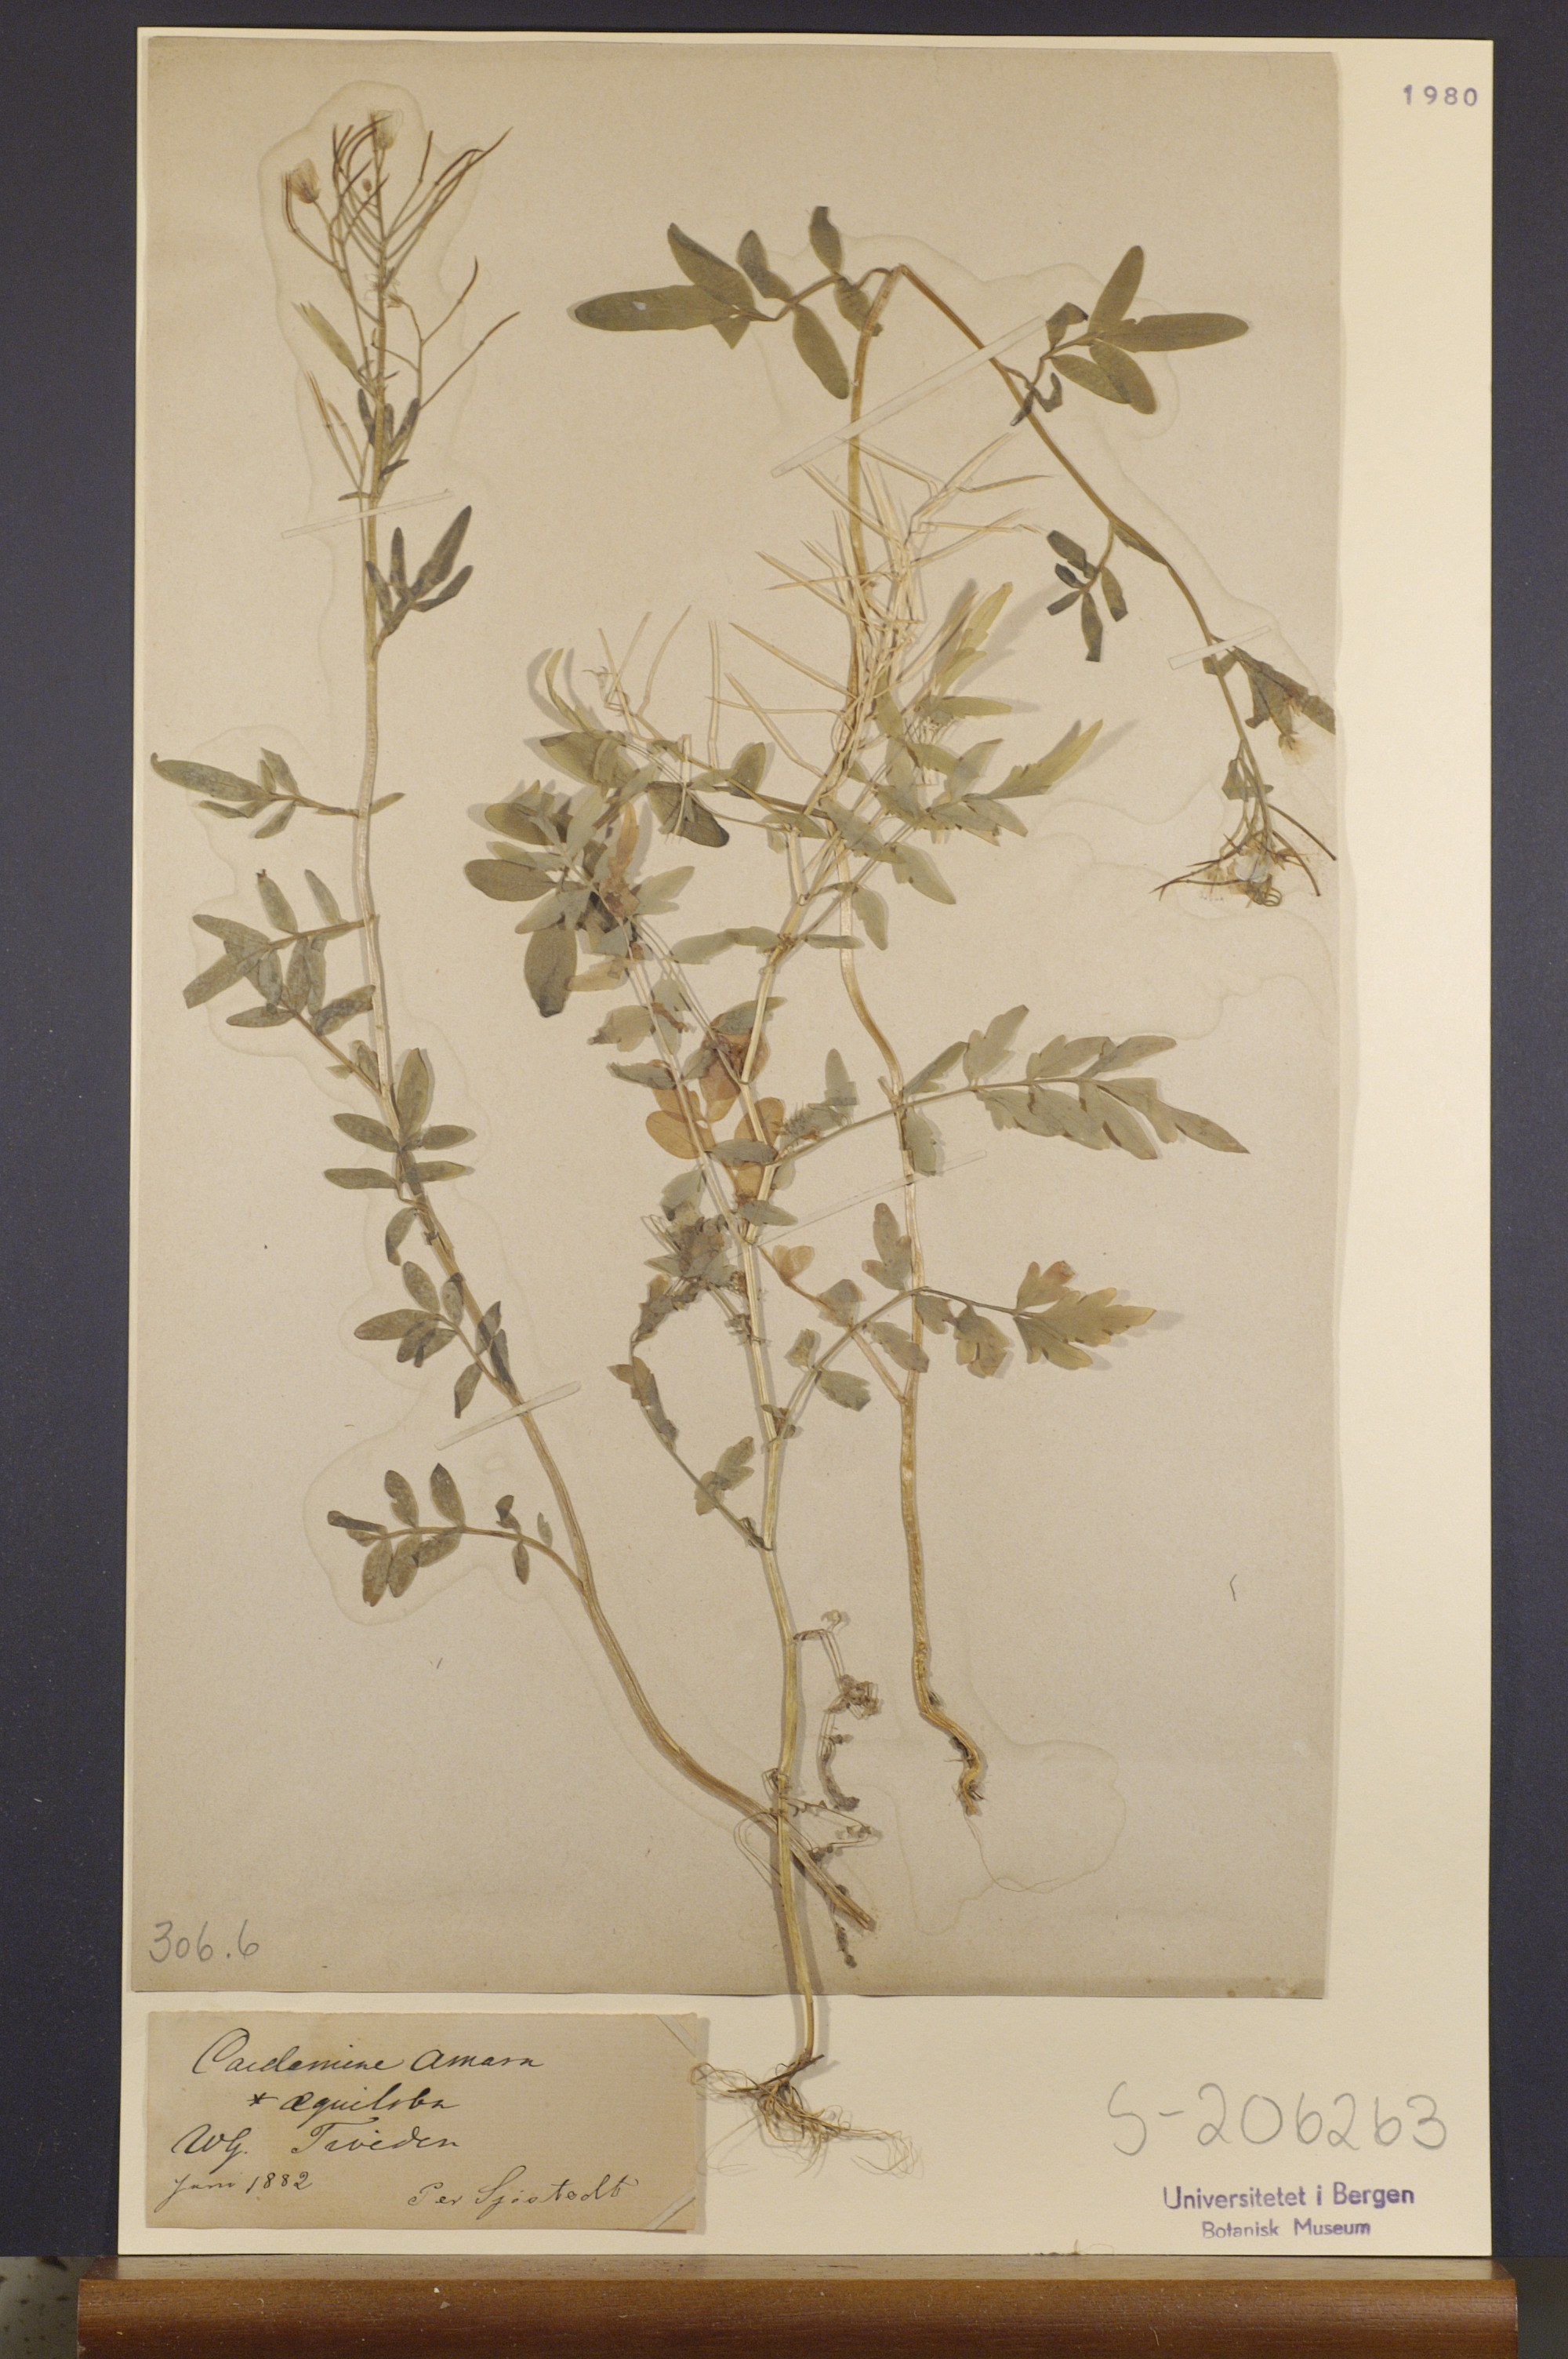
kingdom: Plantae
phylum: Tracheophyta
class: Magnoliopsida
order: Brassicales
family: Brassicaceae
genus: Cardamine
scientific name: Cardamine amara
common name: Large bitter-cress
